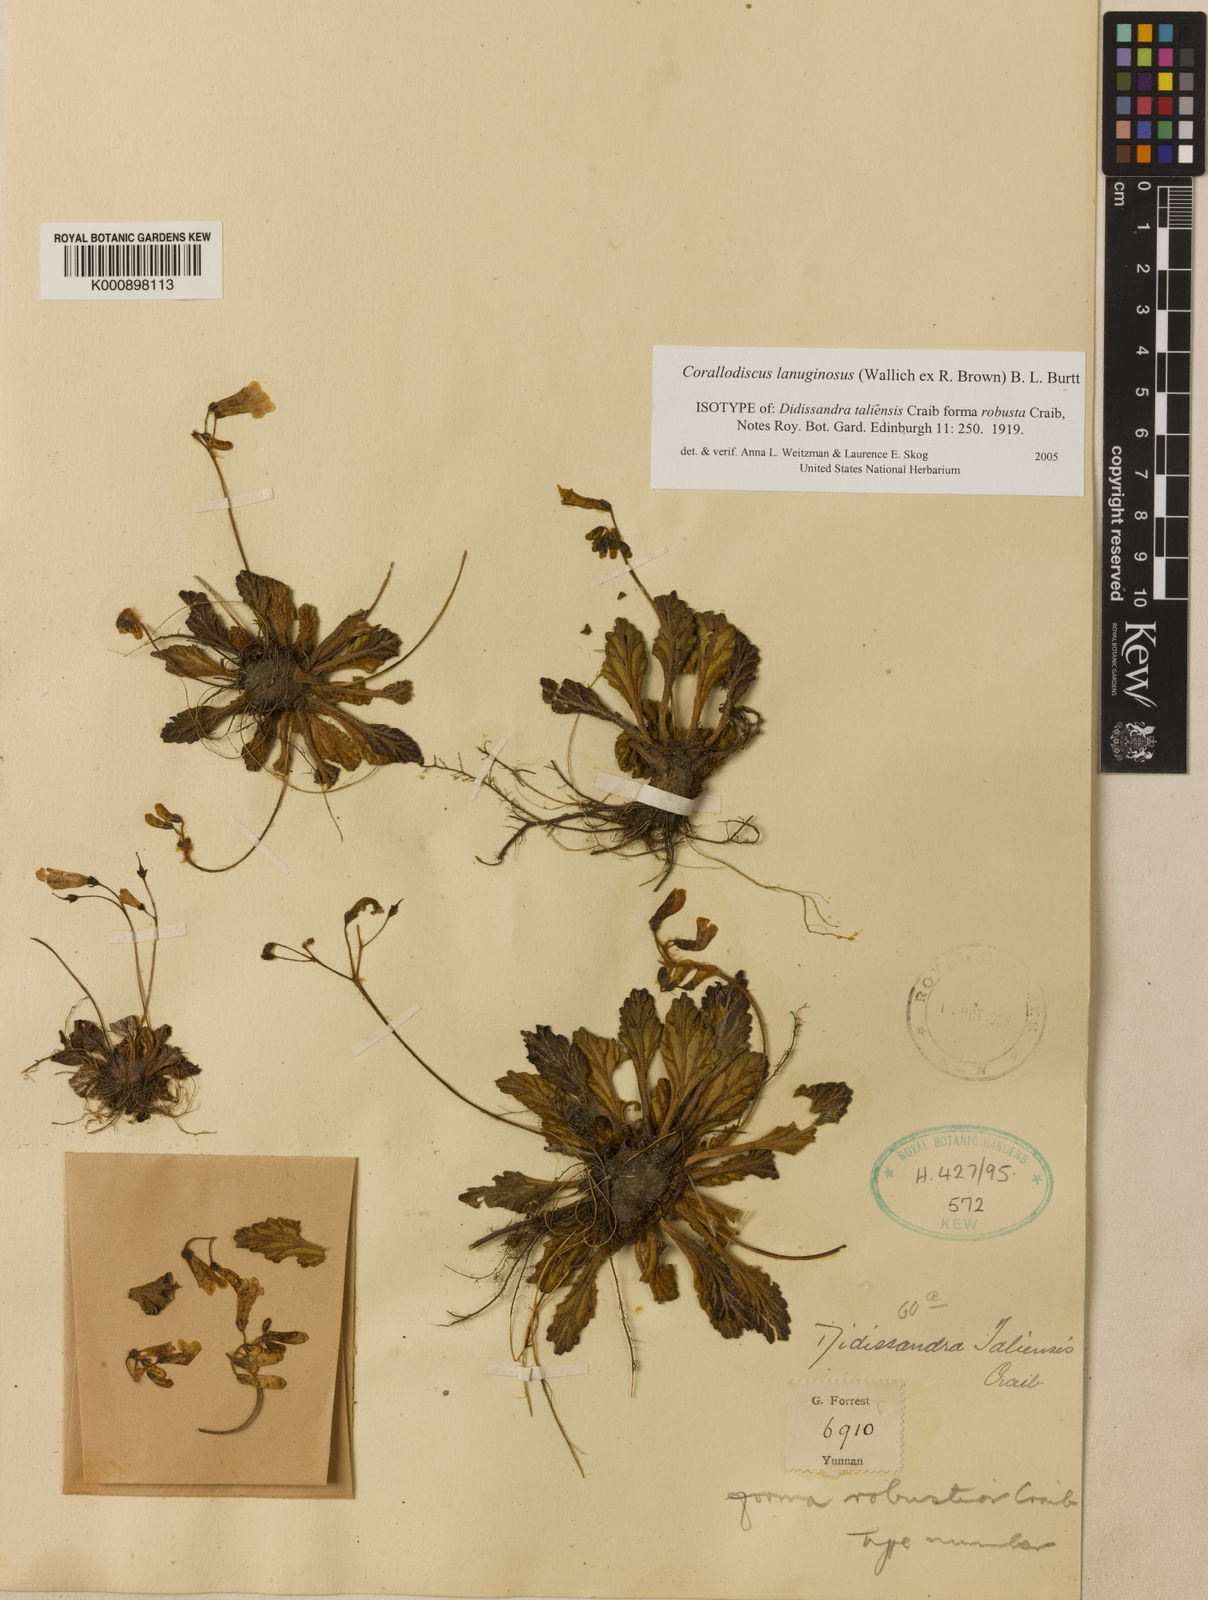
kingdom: Plantae
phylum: Tracheophyta
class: Magnoliopsida
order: Lamiales
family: Gesneriaceae
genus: Corallodiscus
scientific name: Corallodiscus lanuginosus
